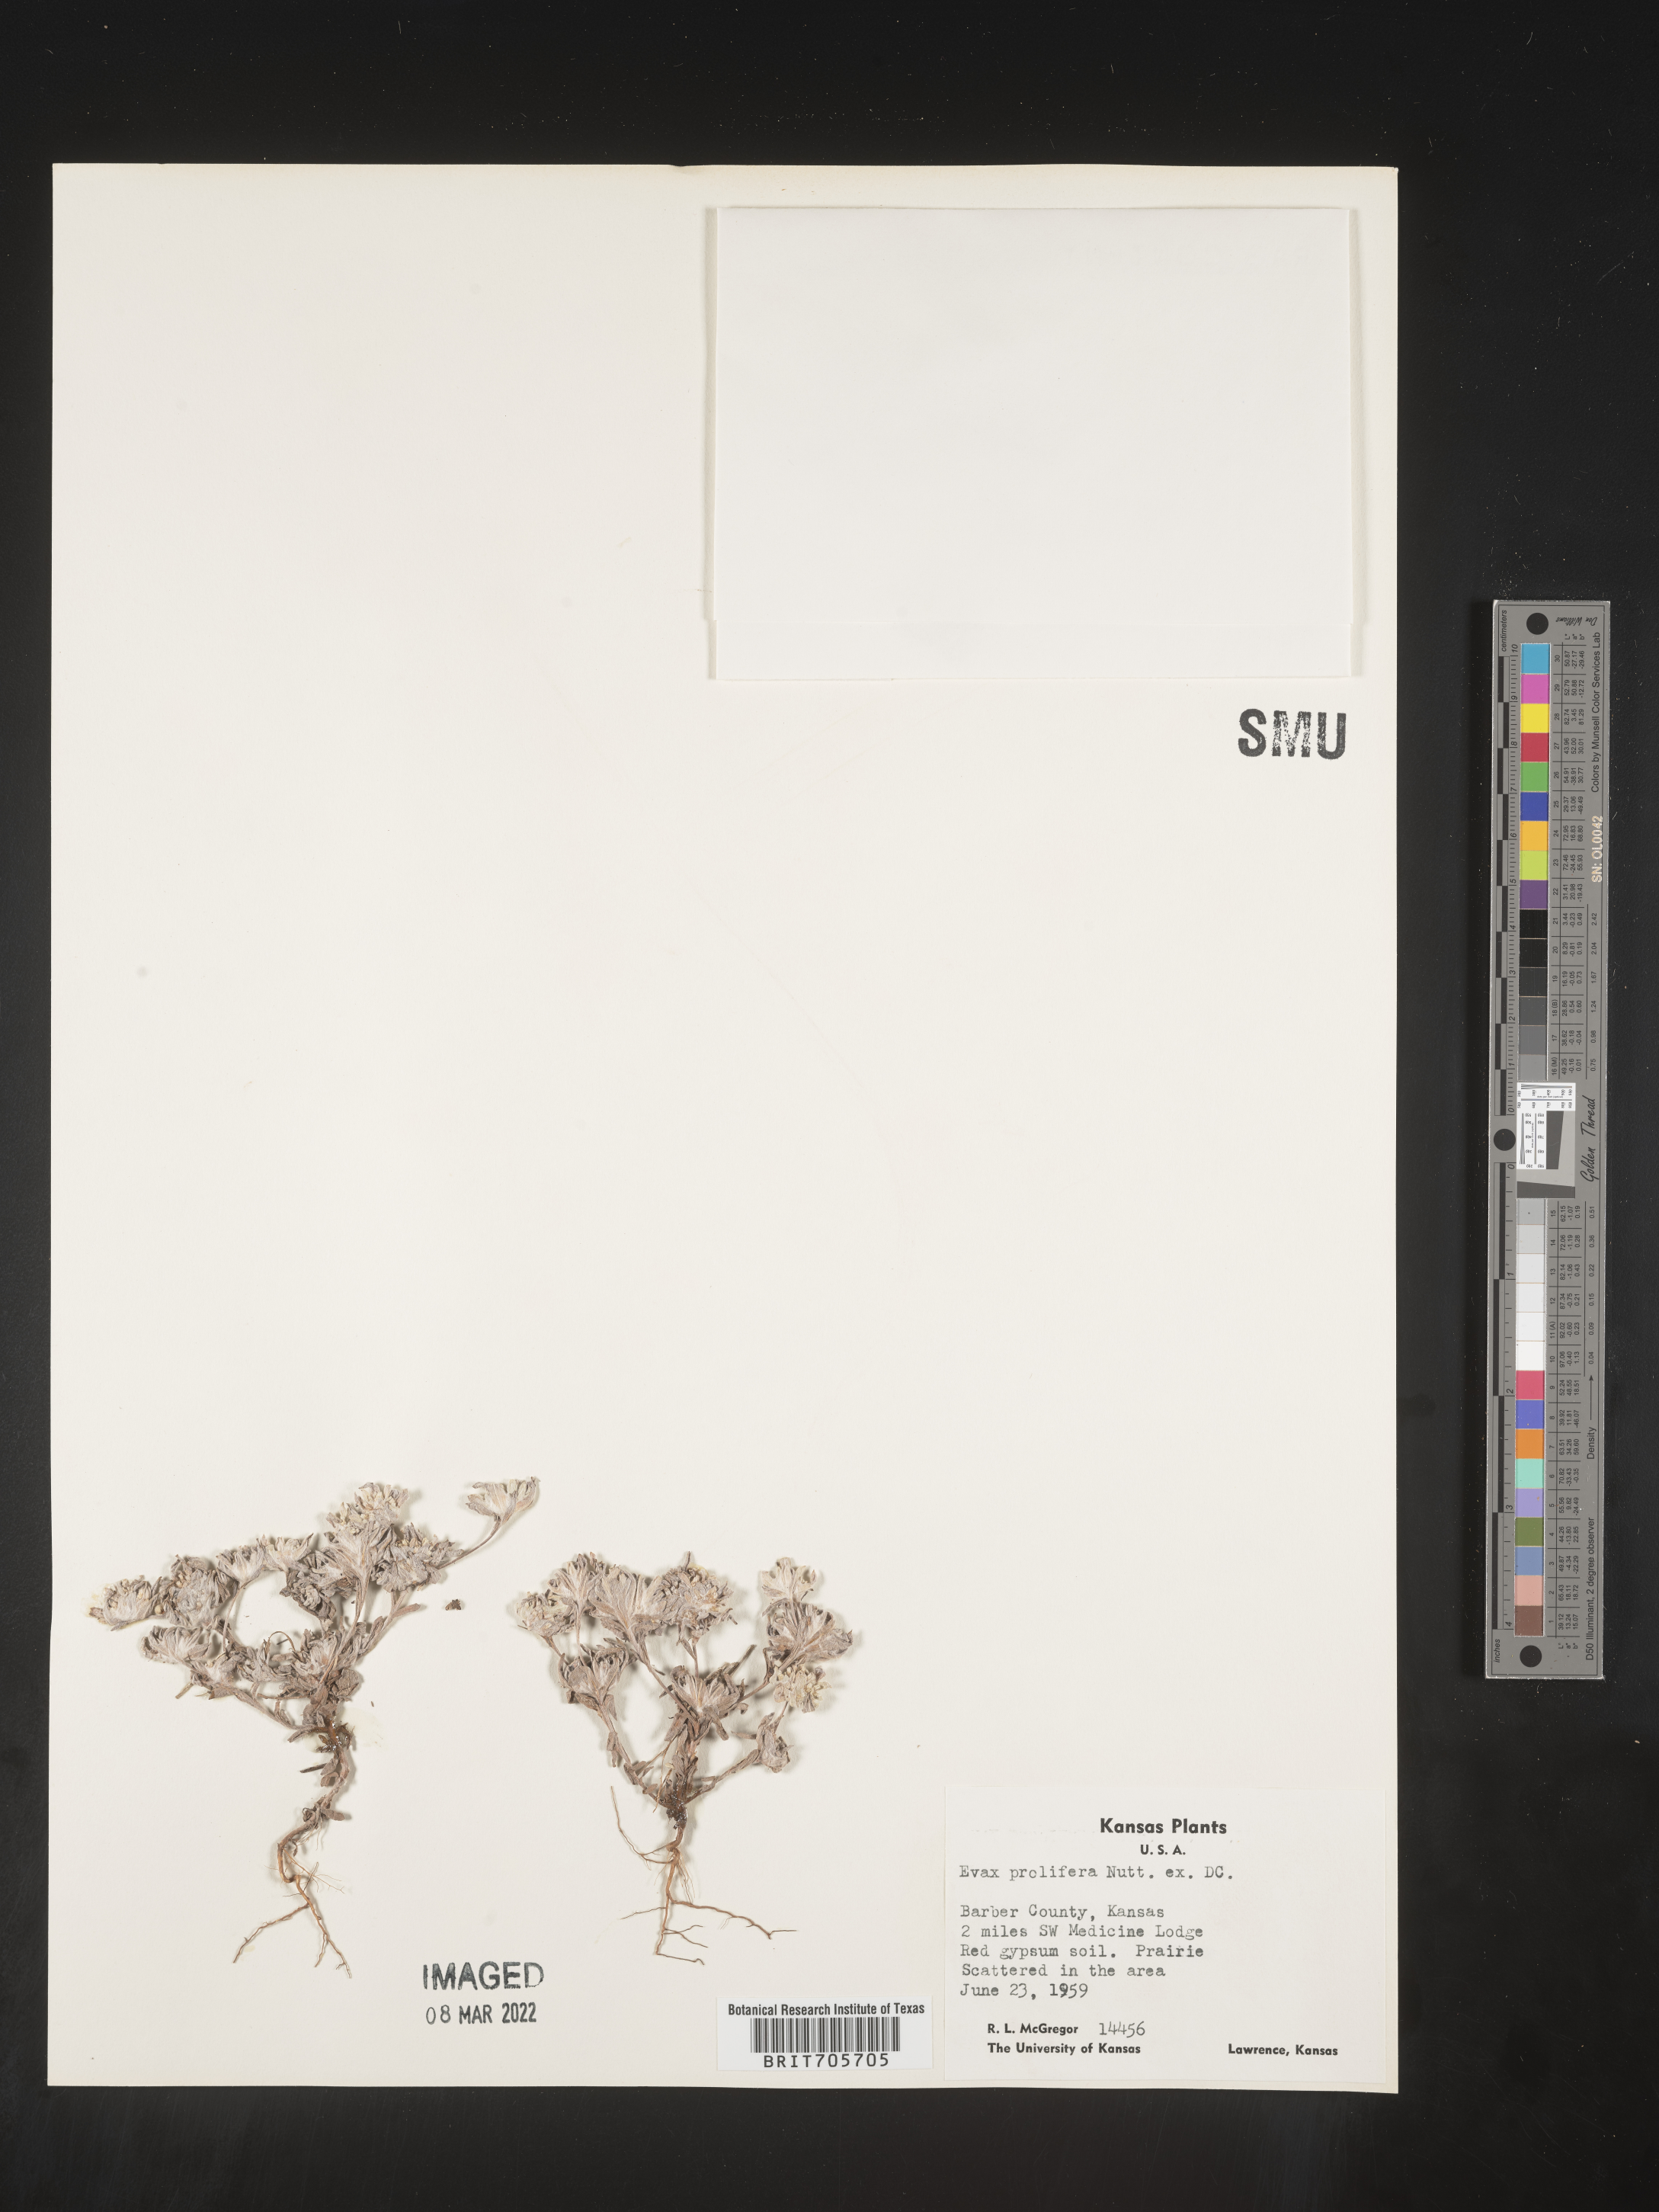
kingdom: Plantae
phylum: Tracheophyta
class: Magnoliopsida
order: Asterales
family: Asteraceae
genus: Diaperia
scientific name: Diaperia prolifera
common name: Big-head rabbit-tobacco
